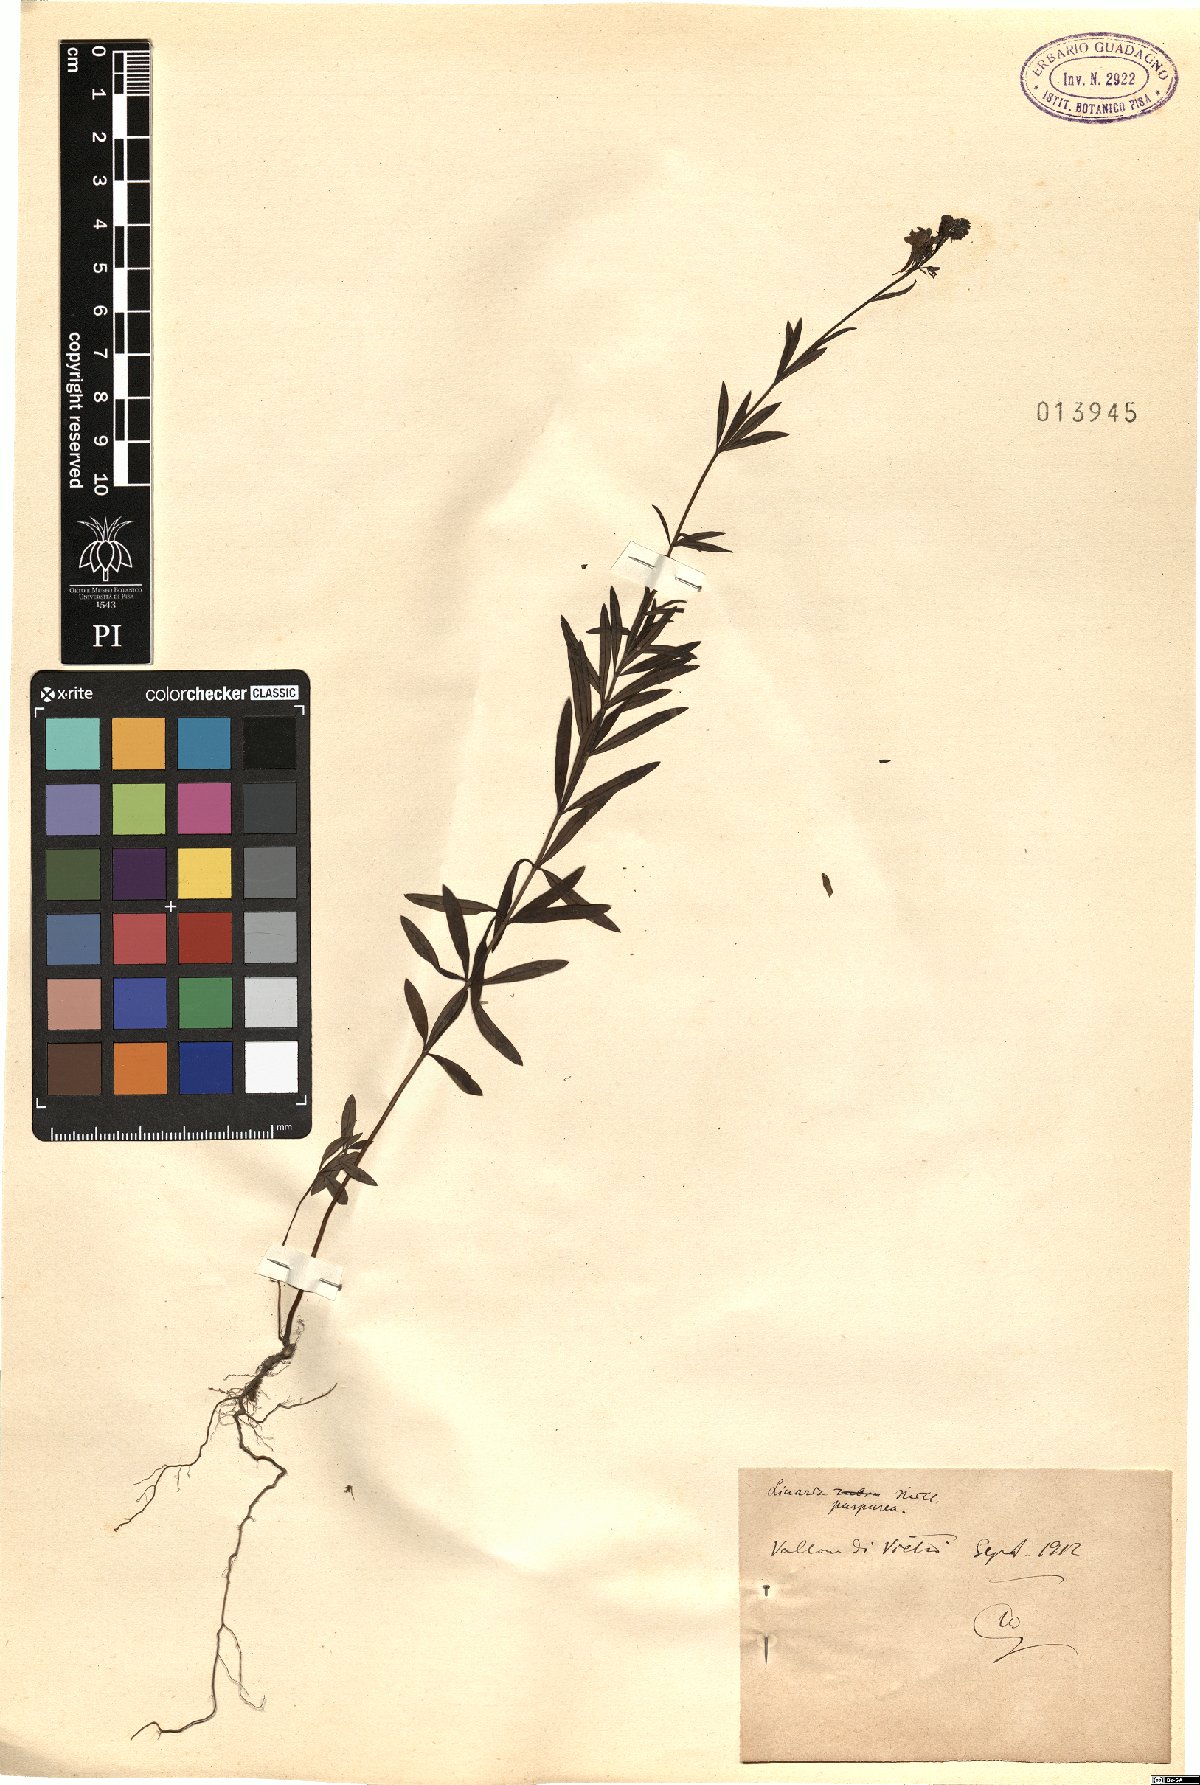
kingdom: Plantae
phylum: Tracheophyta
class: Magnoliopsida
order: Lamiales
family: Plantaginaceae
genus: Linaria
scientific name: Linaria purpurea
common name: Purple toadflax
